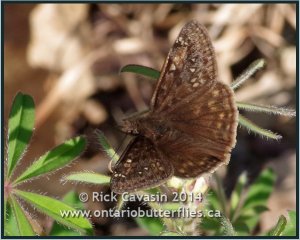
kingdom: Animalia
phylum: Arthropoda
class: Insecta
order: Lepidoptera
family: Hesperiidae
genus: Gesta
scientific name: Gesta
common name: Juvenal's Duskywing
